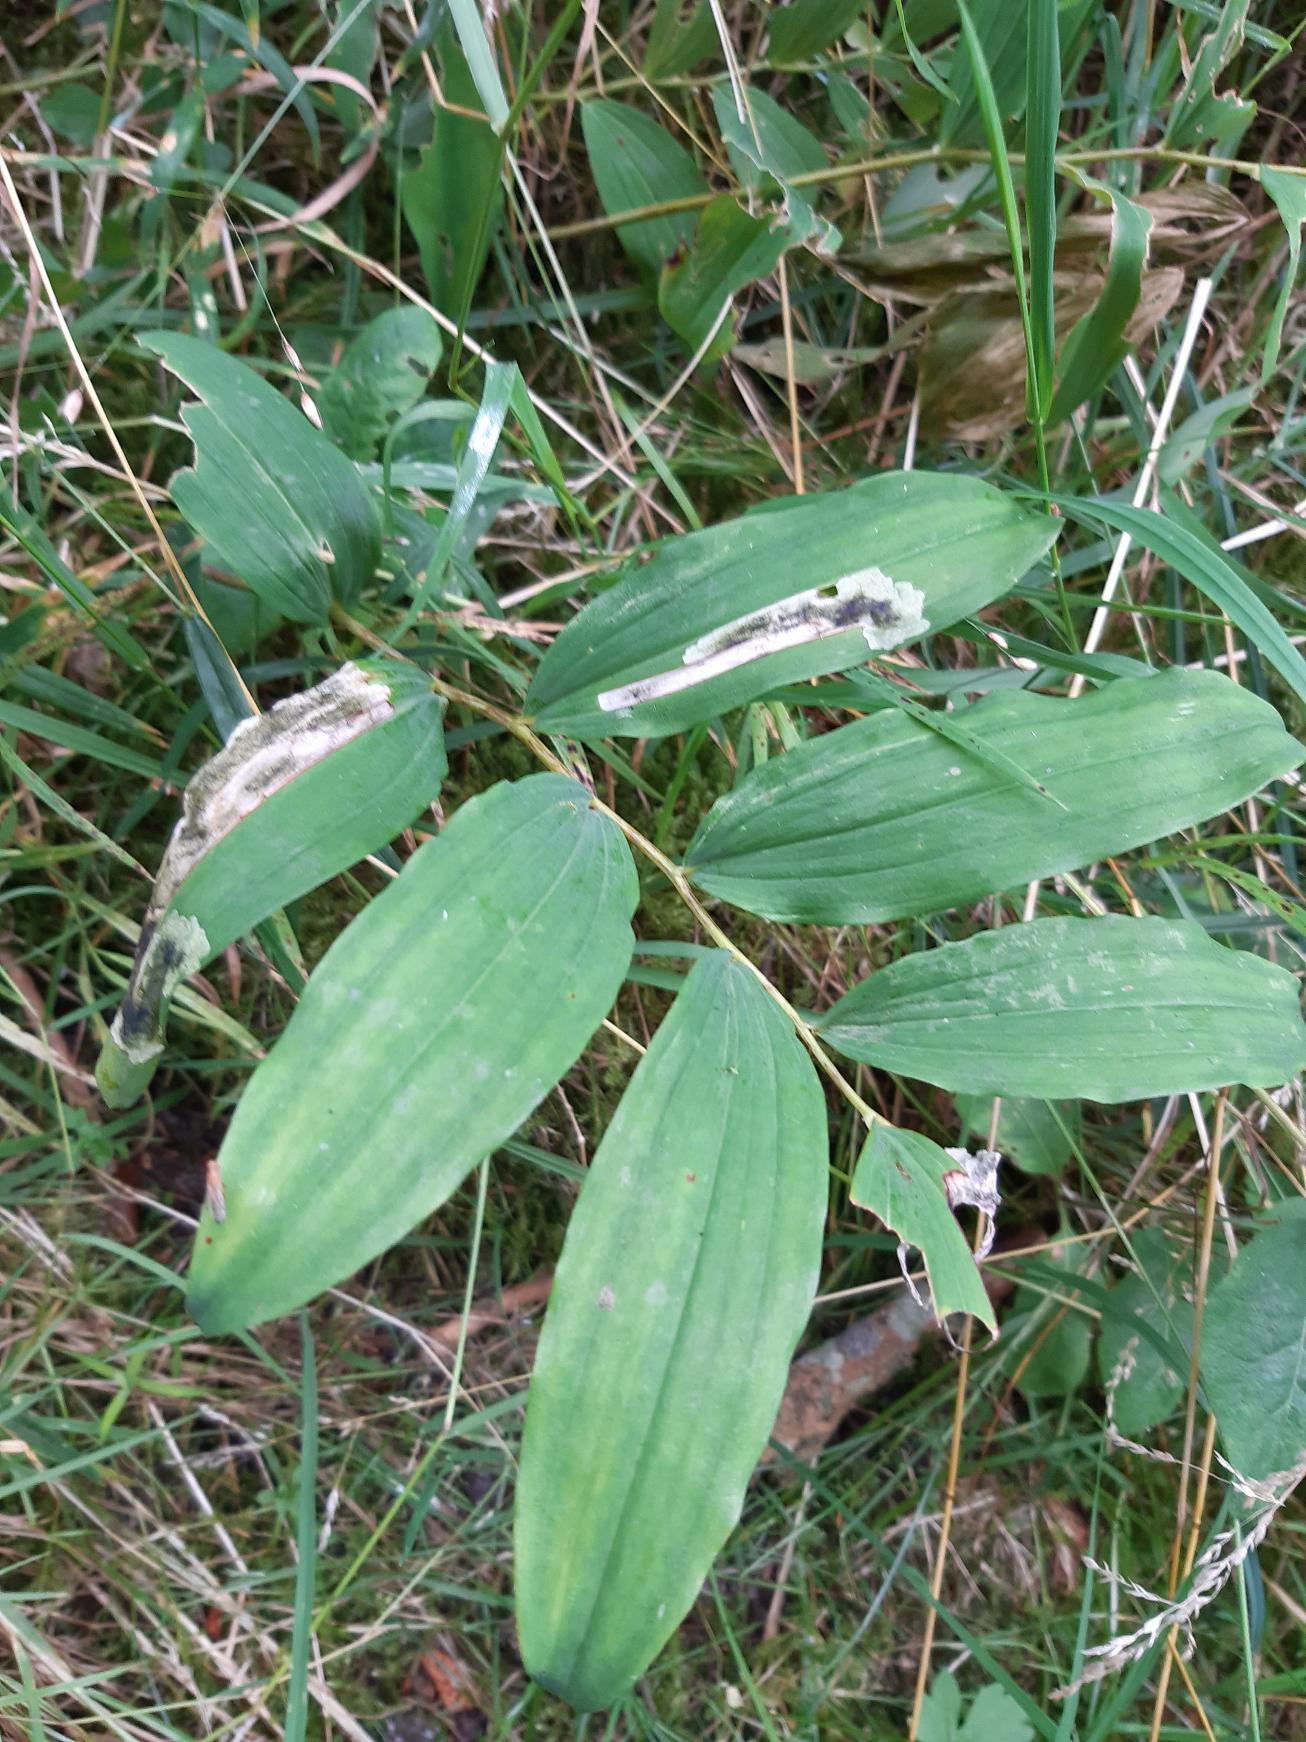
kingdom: Plantae
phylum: Tracheophyta
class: Liliopsida
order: Asparagales
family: Asparagaceae
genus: Polygonatum
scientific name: Polygonatum multiflorum
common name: Stor konval
